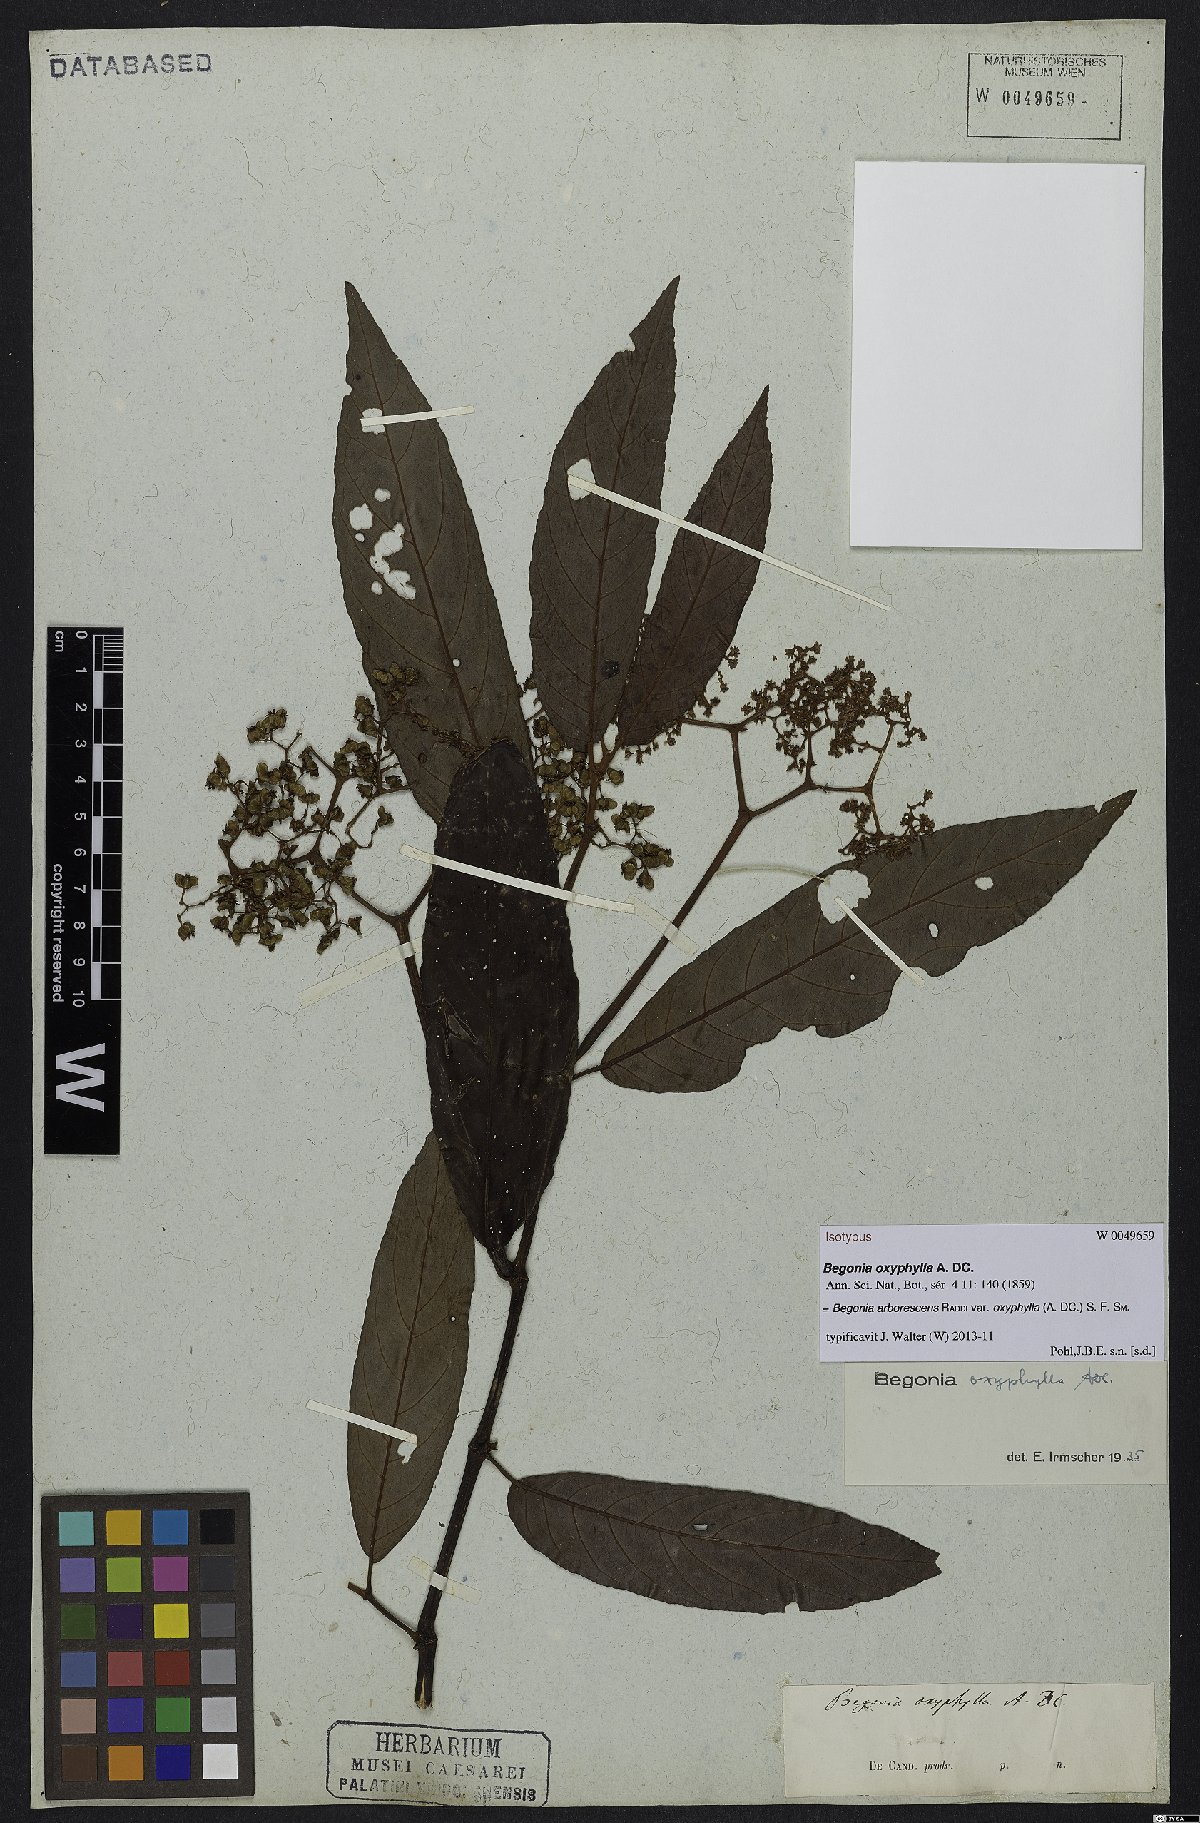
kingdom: Plantae
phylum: Tracheophyta
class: Magnoliopsida
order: Cucurbitales
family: Begoniaceae
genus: Begonia
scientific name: Begonia arborescens
